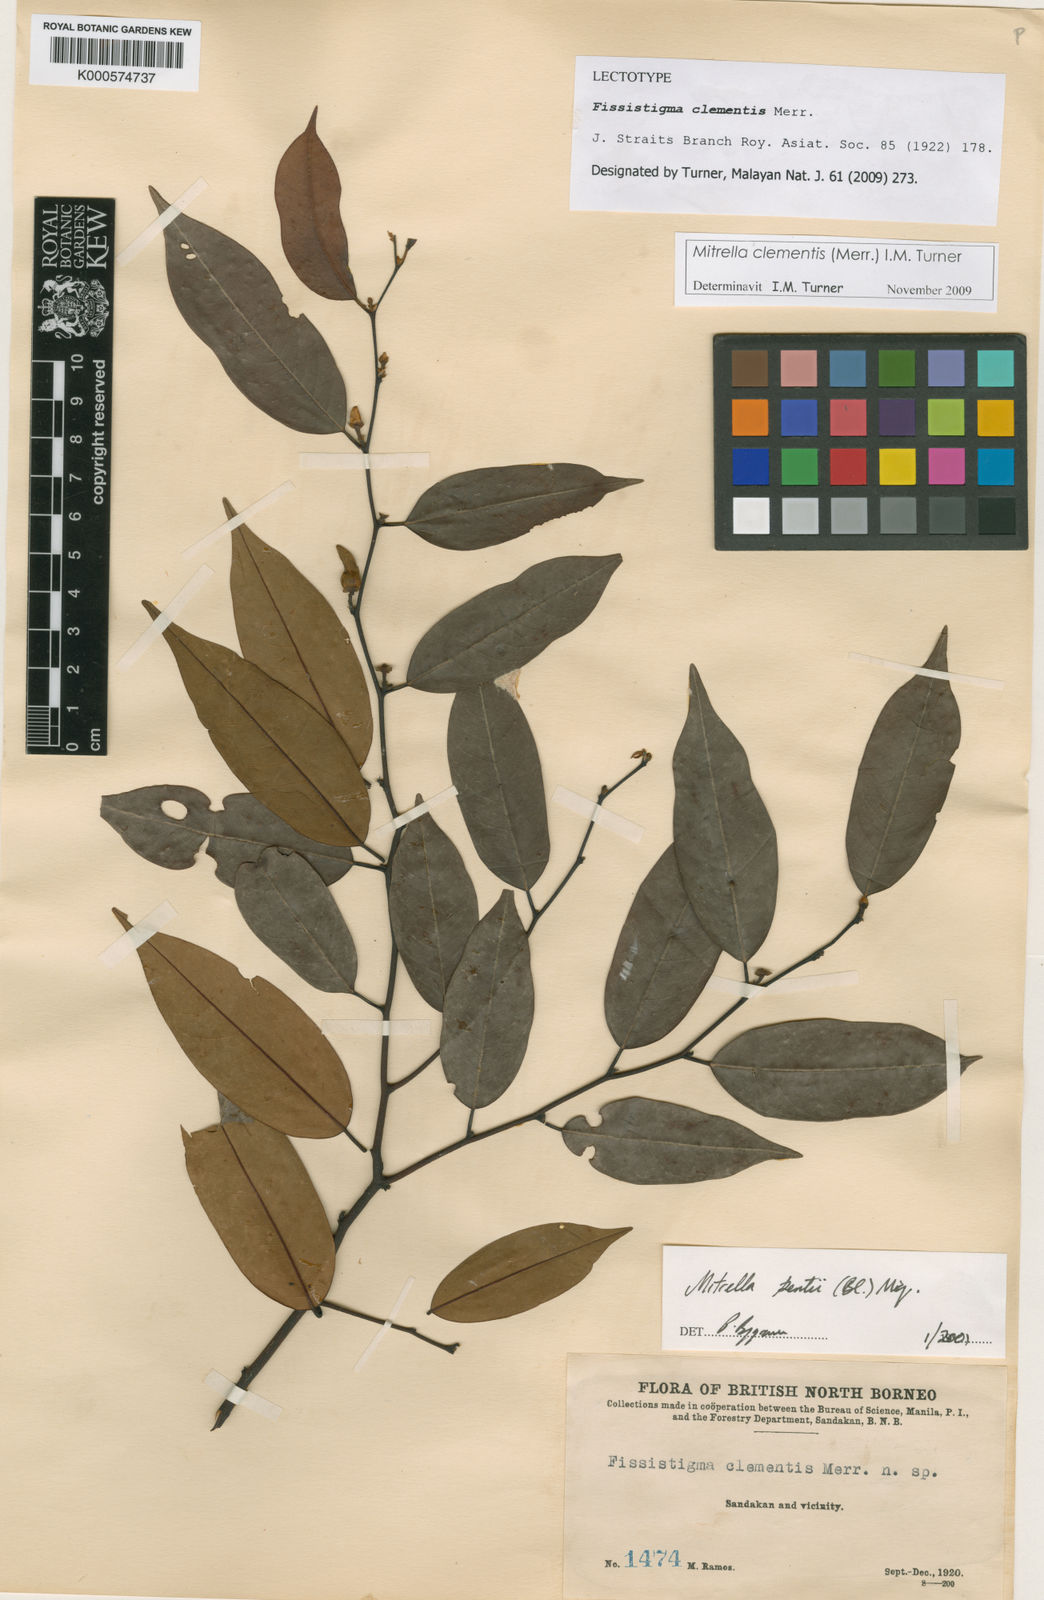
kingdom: Plantae
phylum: Tracheophyta
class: Magnoliopsida
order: Magnoliales
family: Annonaceae
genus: Mitrella
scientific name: Mitrella clementis
